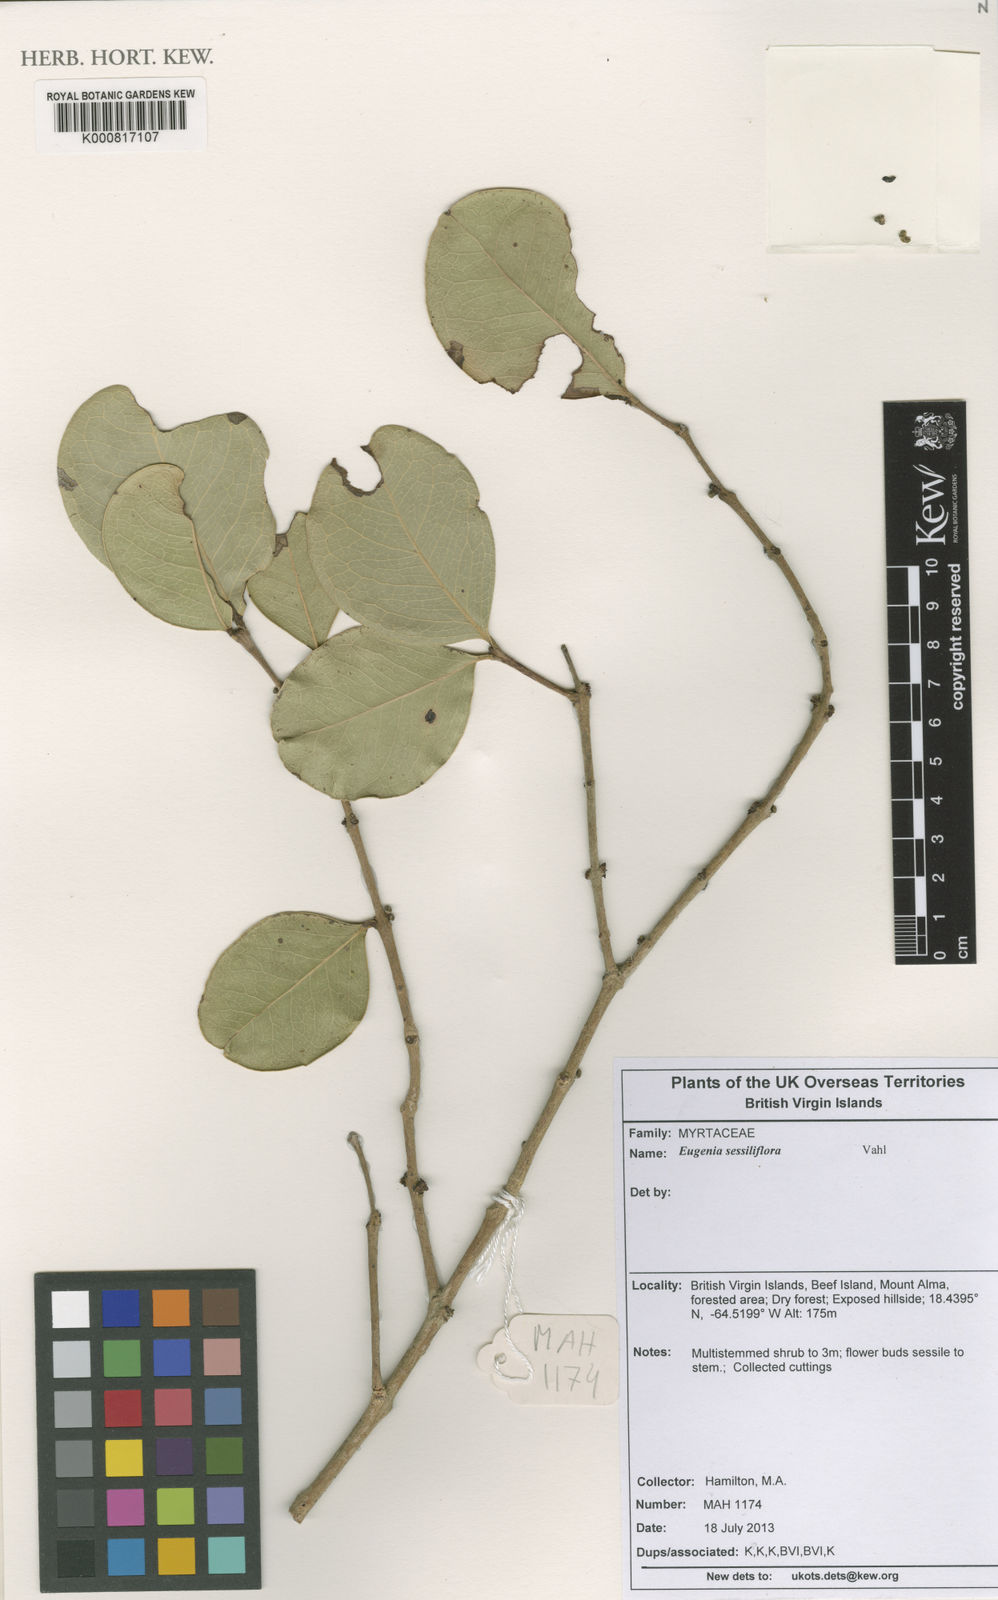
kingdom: Plantae
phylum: Tracheophyta
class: Magnoliopsida
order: Myrtales
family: Myrtaceae
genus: Eugenia
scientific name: Eugenia sessiliflora
